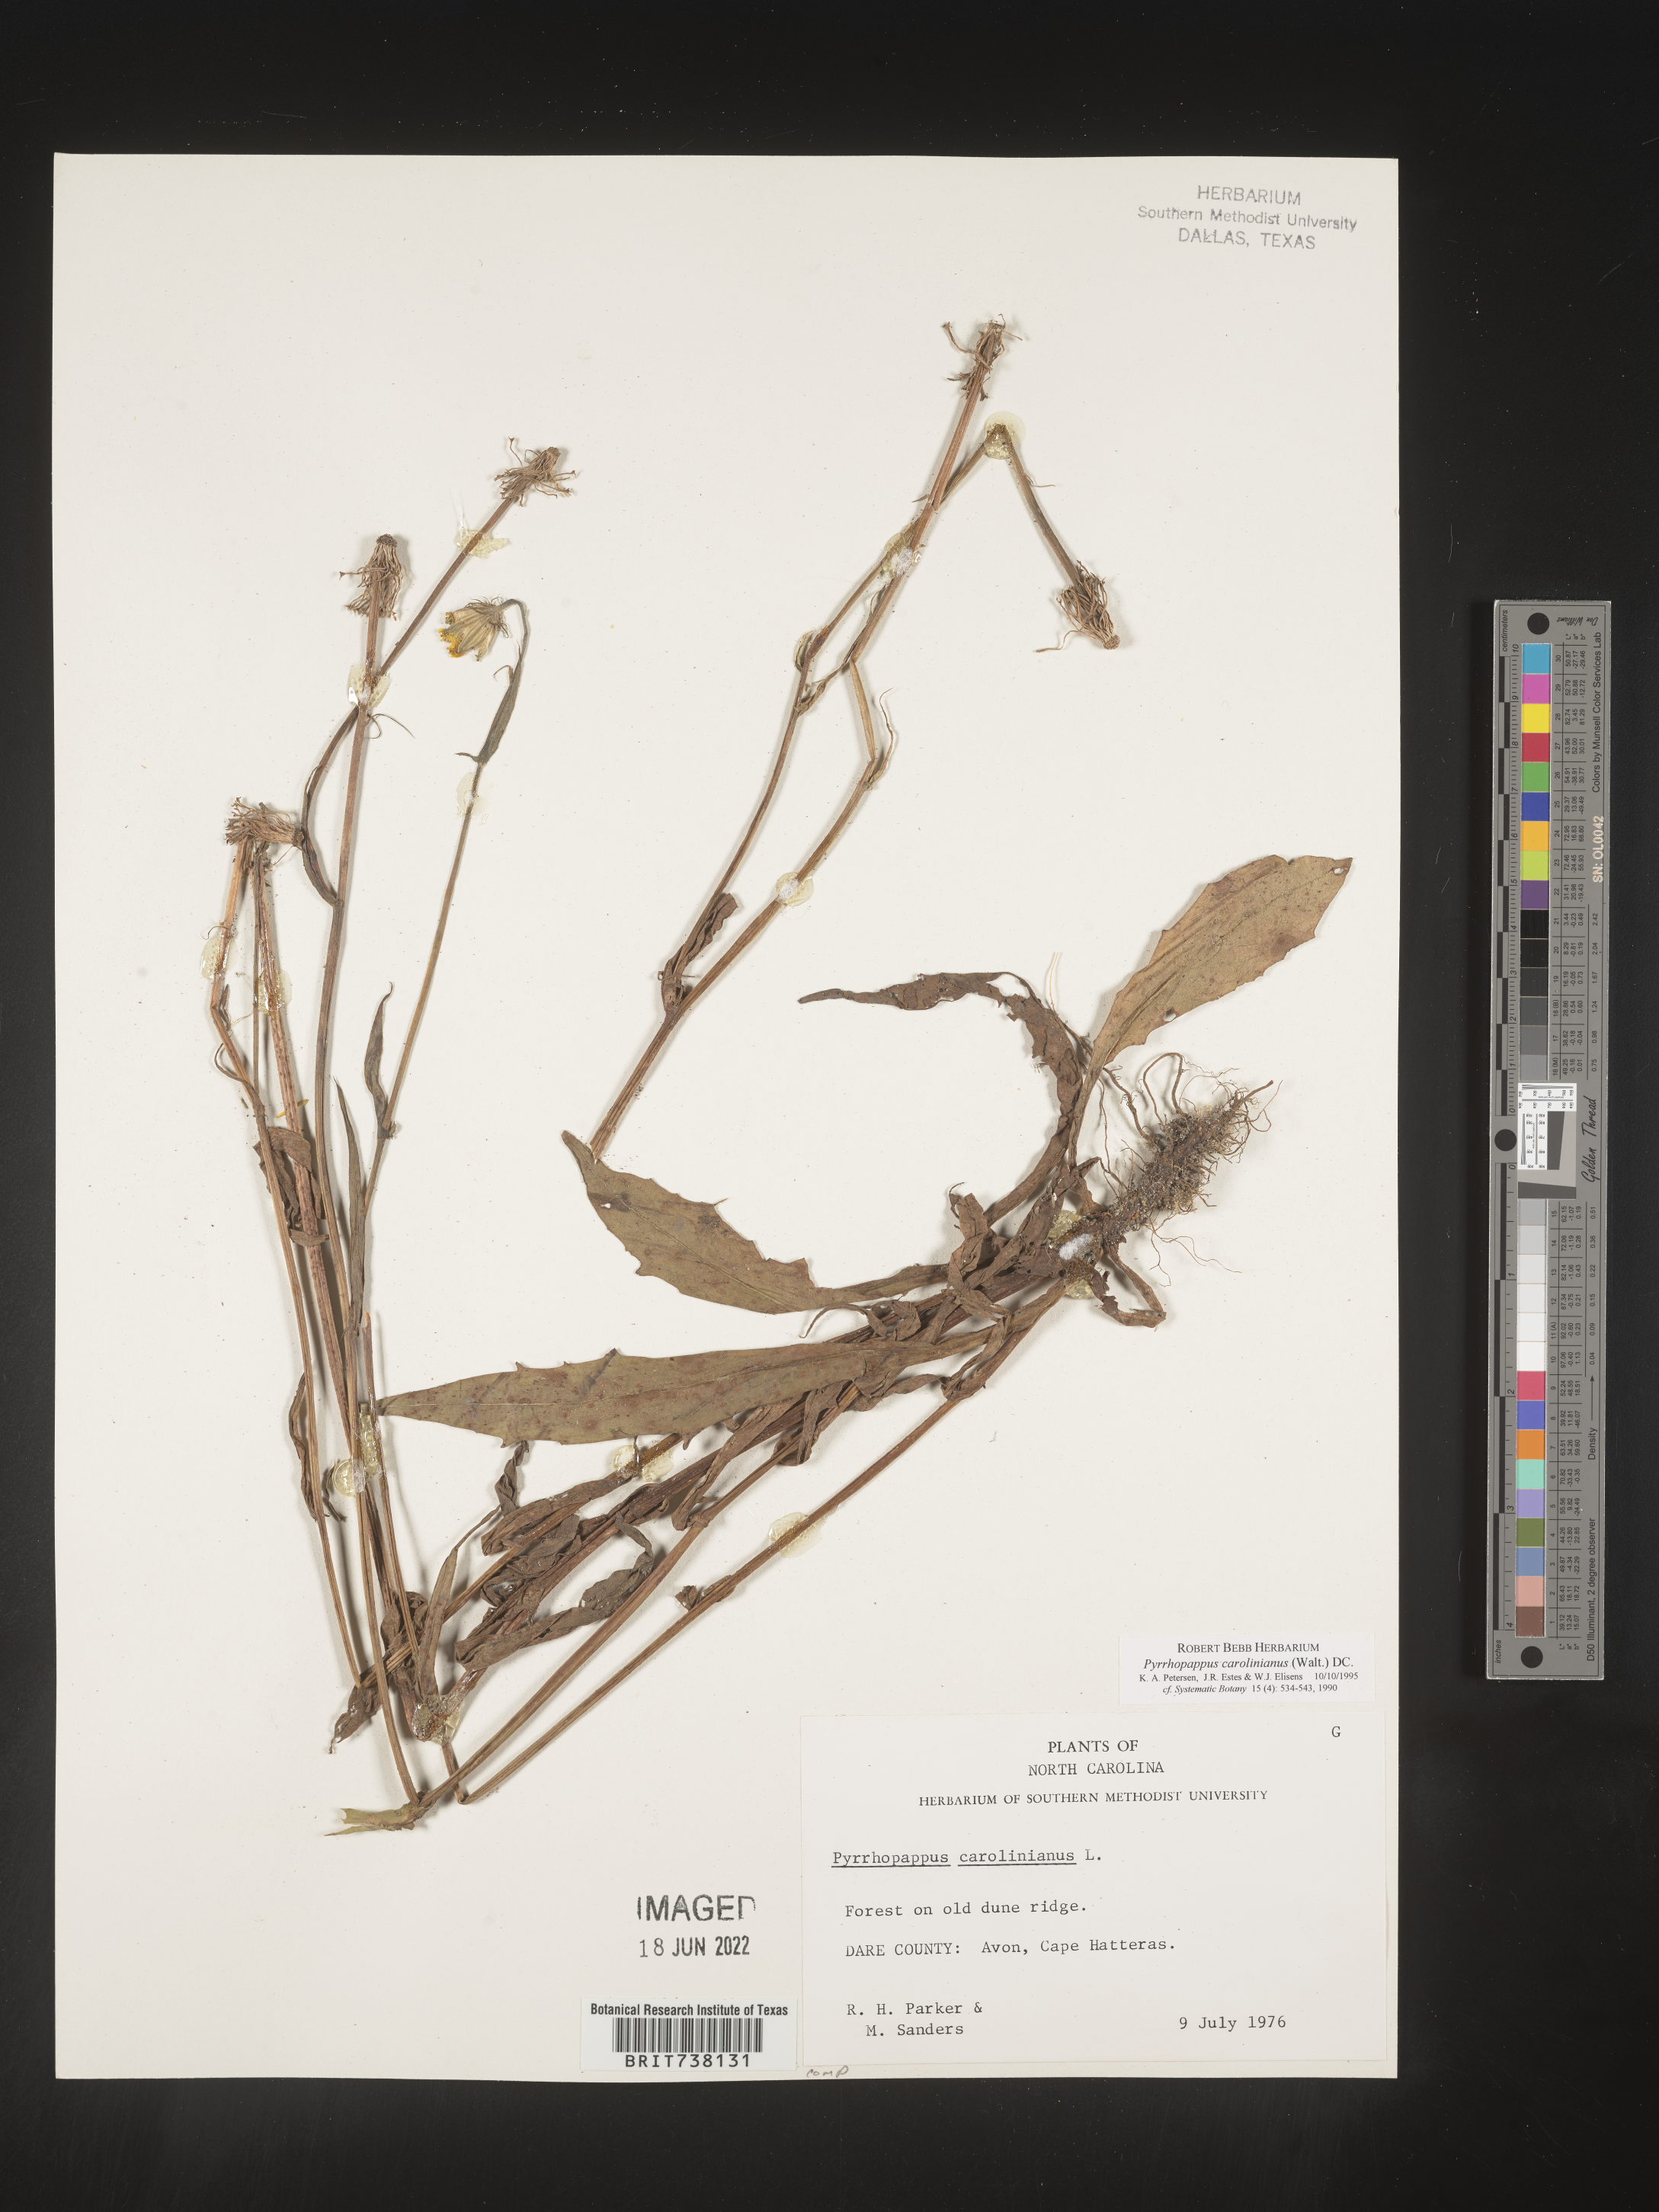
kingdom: Plantae
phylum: Tracheophyta
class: Magnoliopsida
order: Asterales
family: Asteraceae
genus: Pyrrhopappus
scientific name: Pyrrhopappus carolinianus
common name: Carolina desert-chicory
